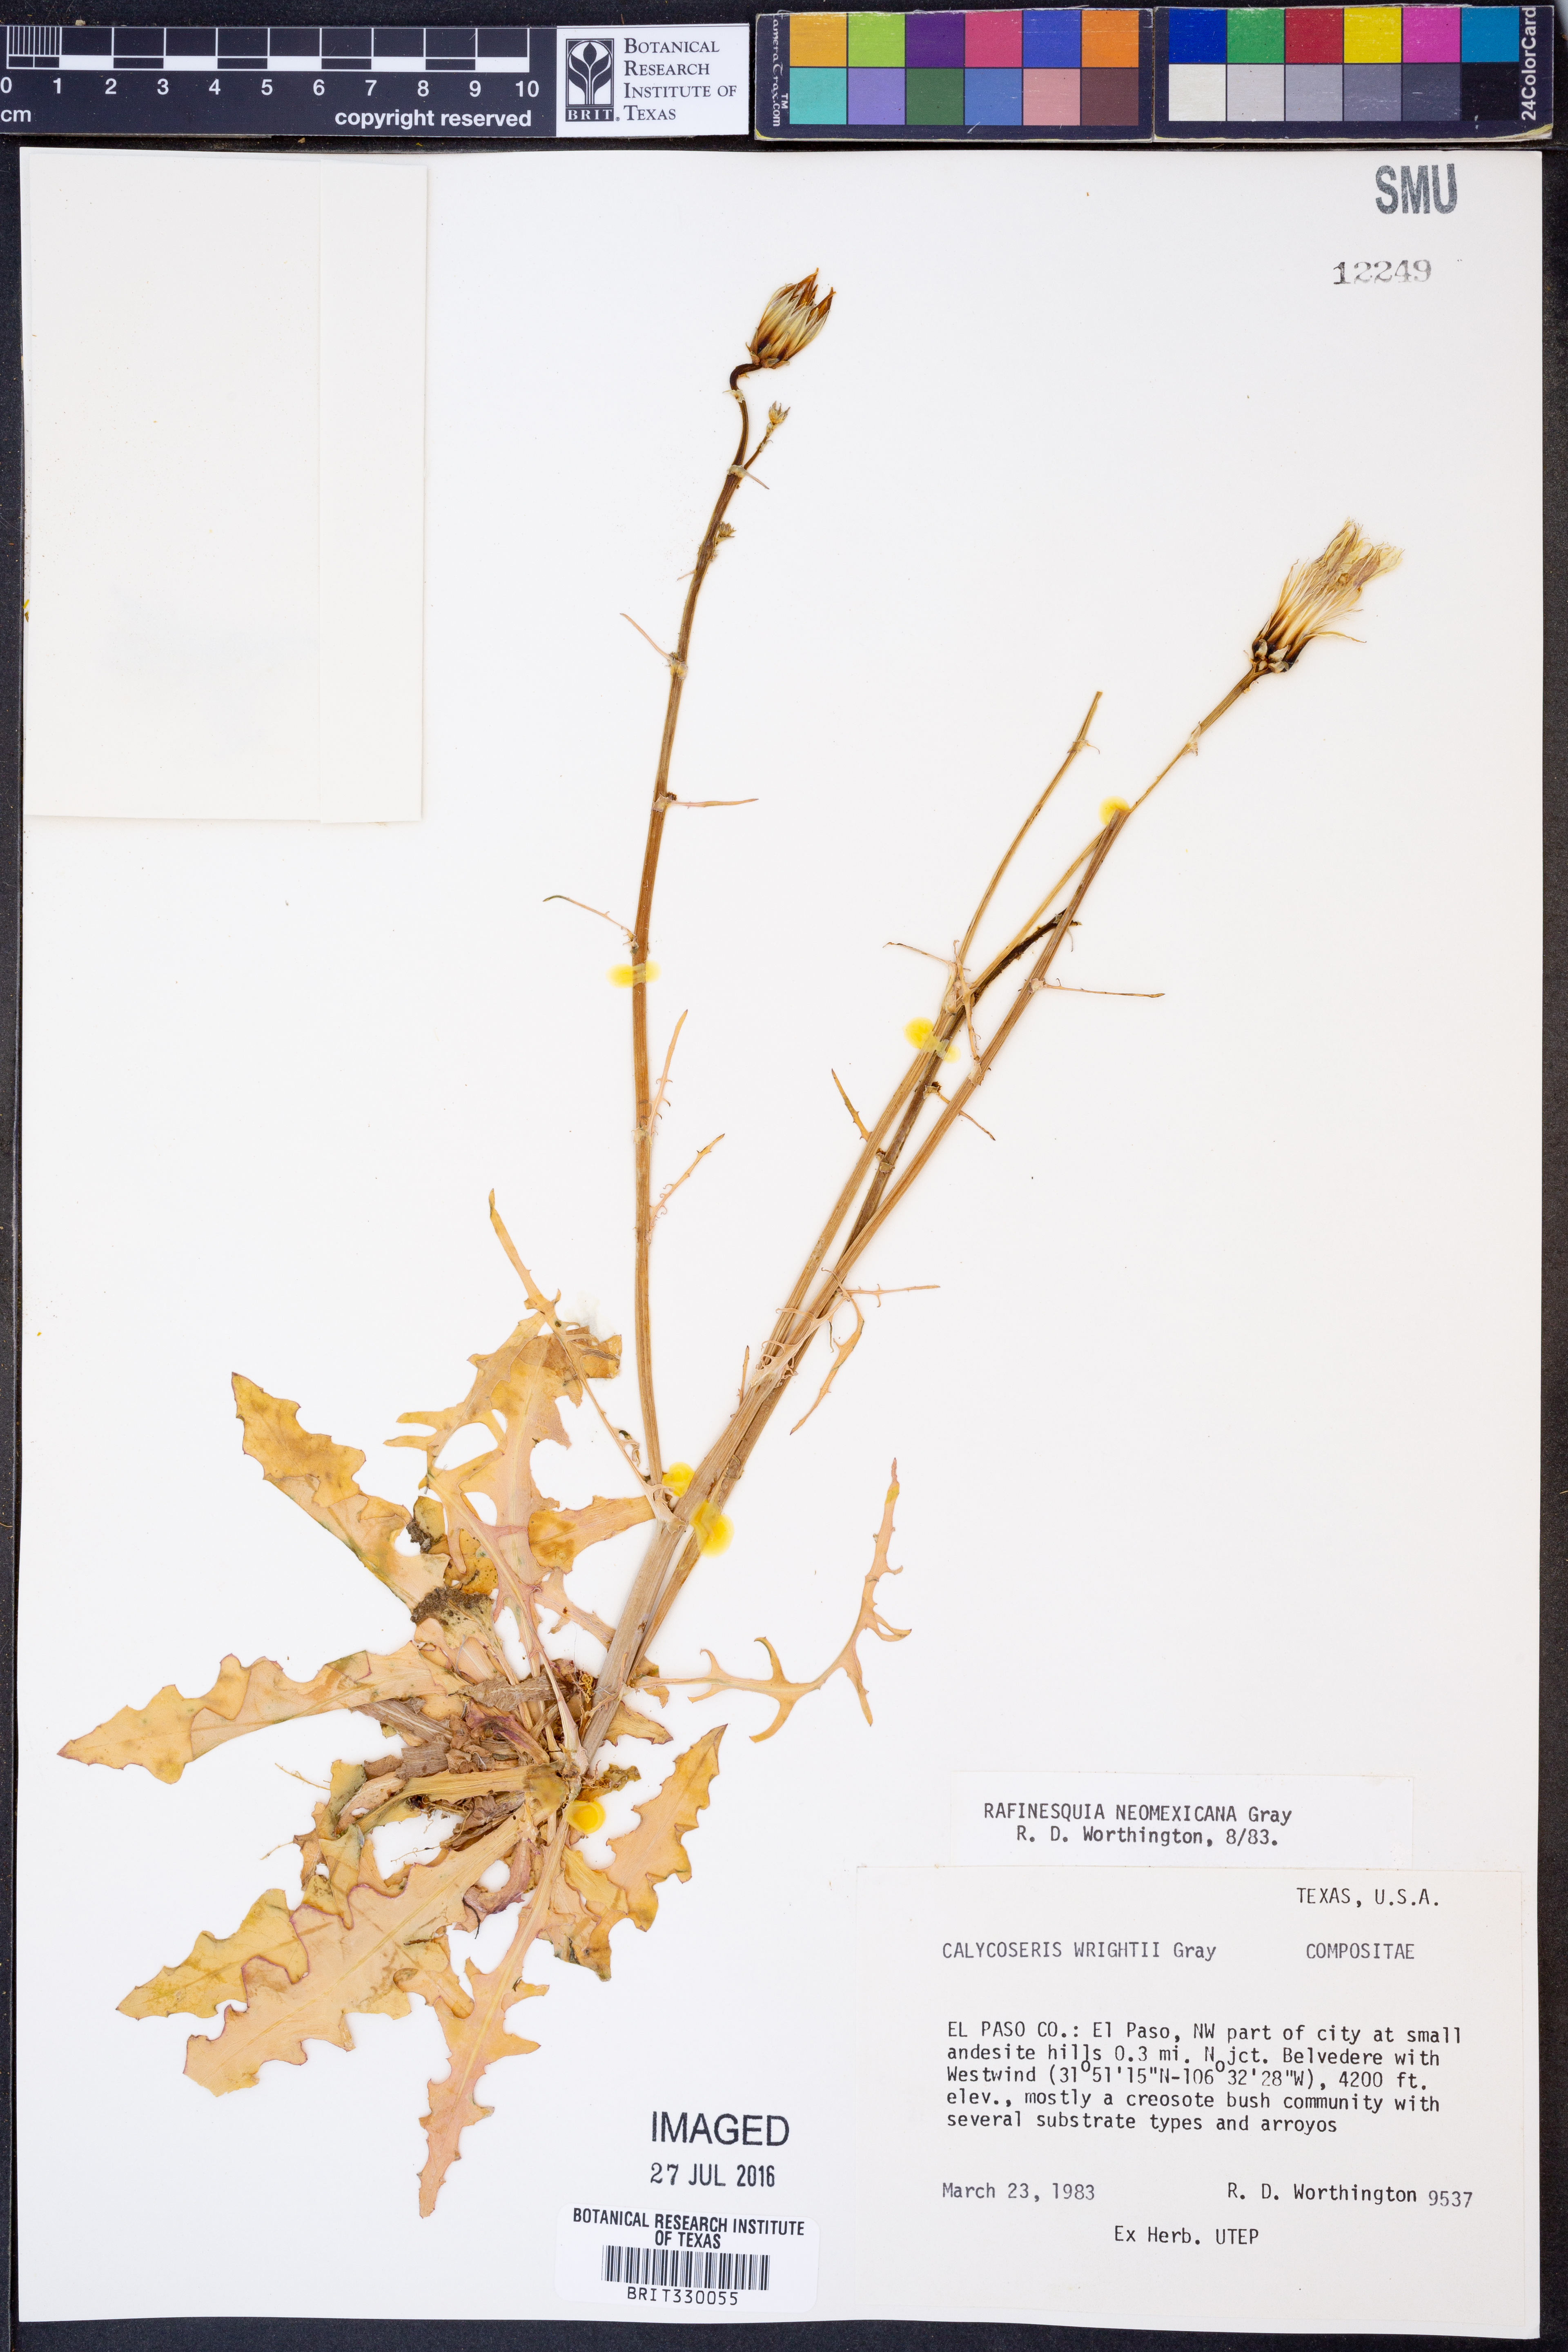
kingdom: Plantae
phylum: Tracheophyta
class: Magnoliopsida
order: Asterales
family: Asteraceae
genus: Rafinesquia
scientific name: Rafinesquia neomexicana
